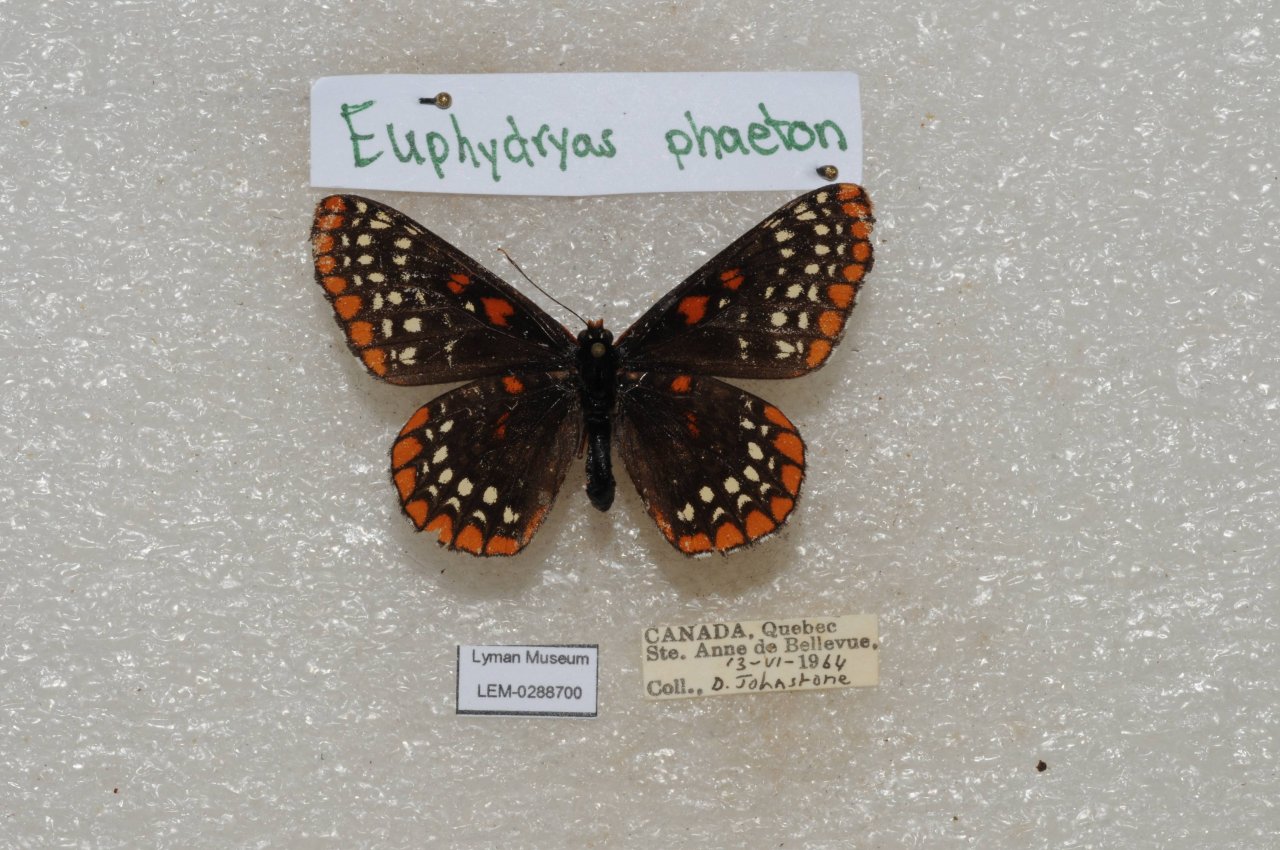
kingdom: Animalia
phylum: Arthropoda
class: Insecta
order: Lepidoptera
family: Nymphalidae
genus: Euphydryas
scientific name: Euphydryas phaeton
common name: Baltimore Checkerspot
